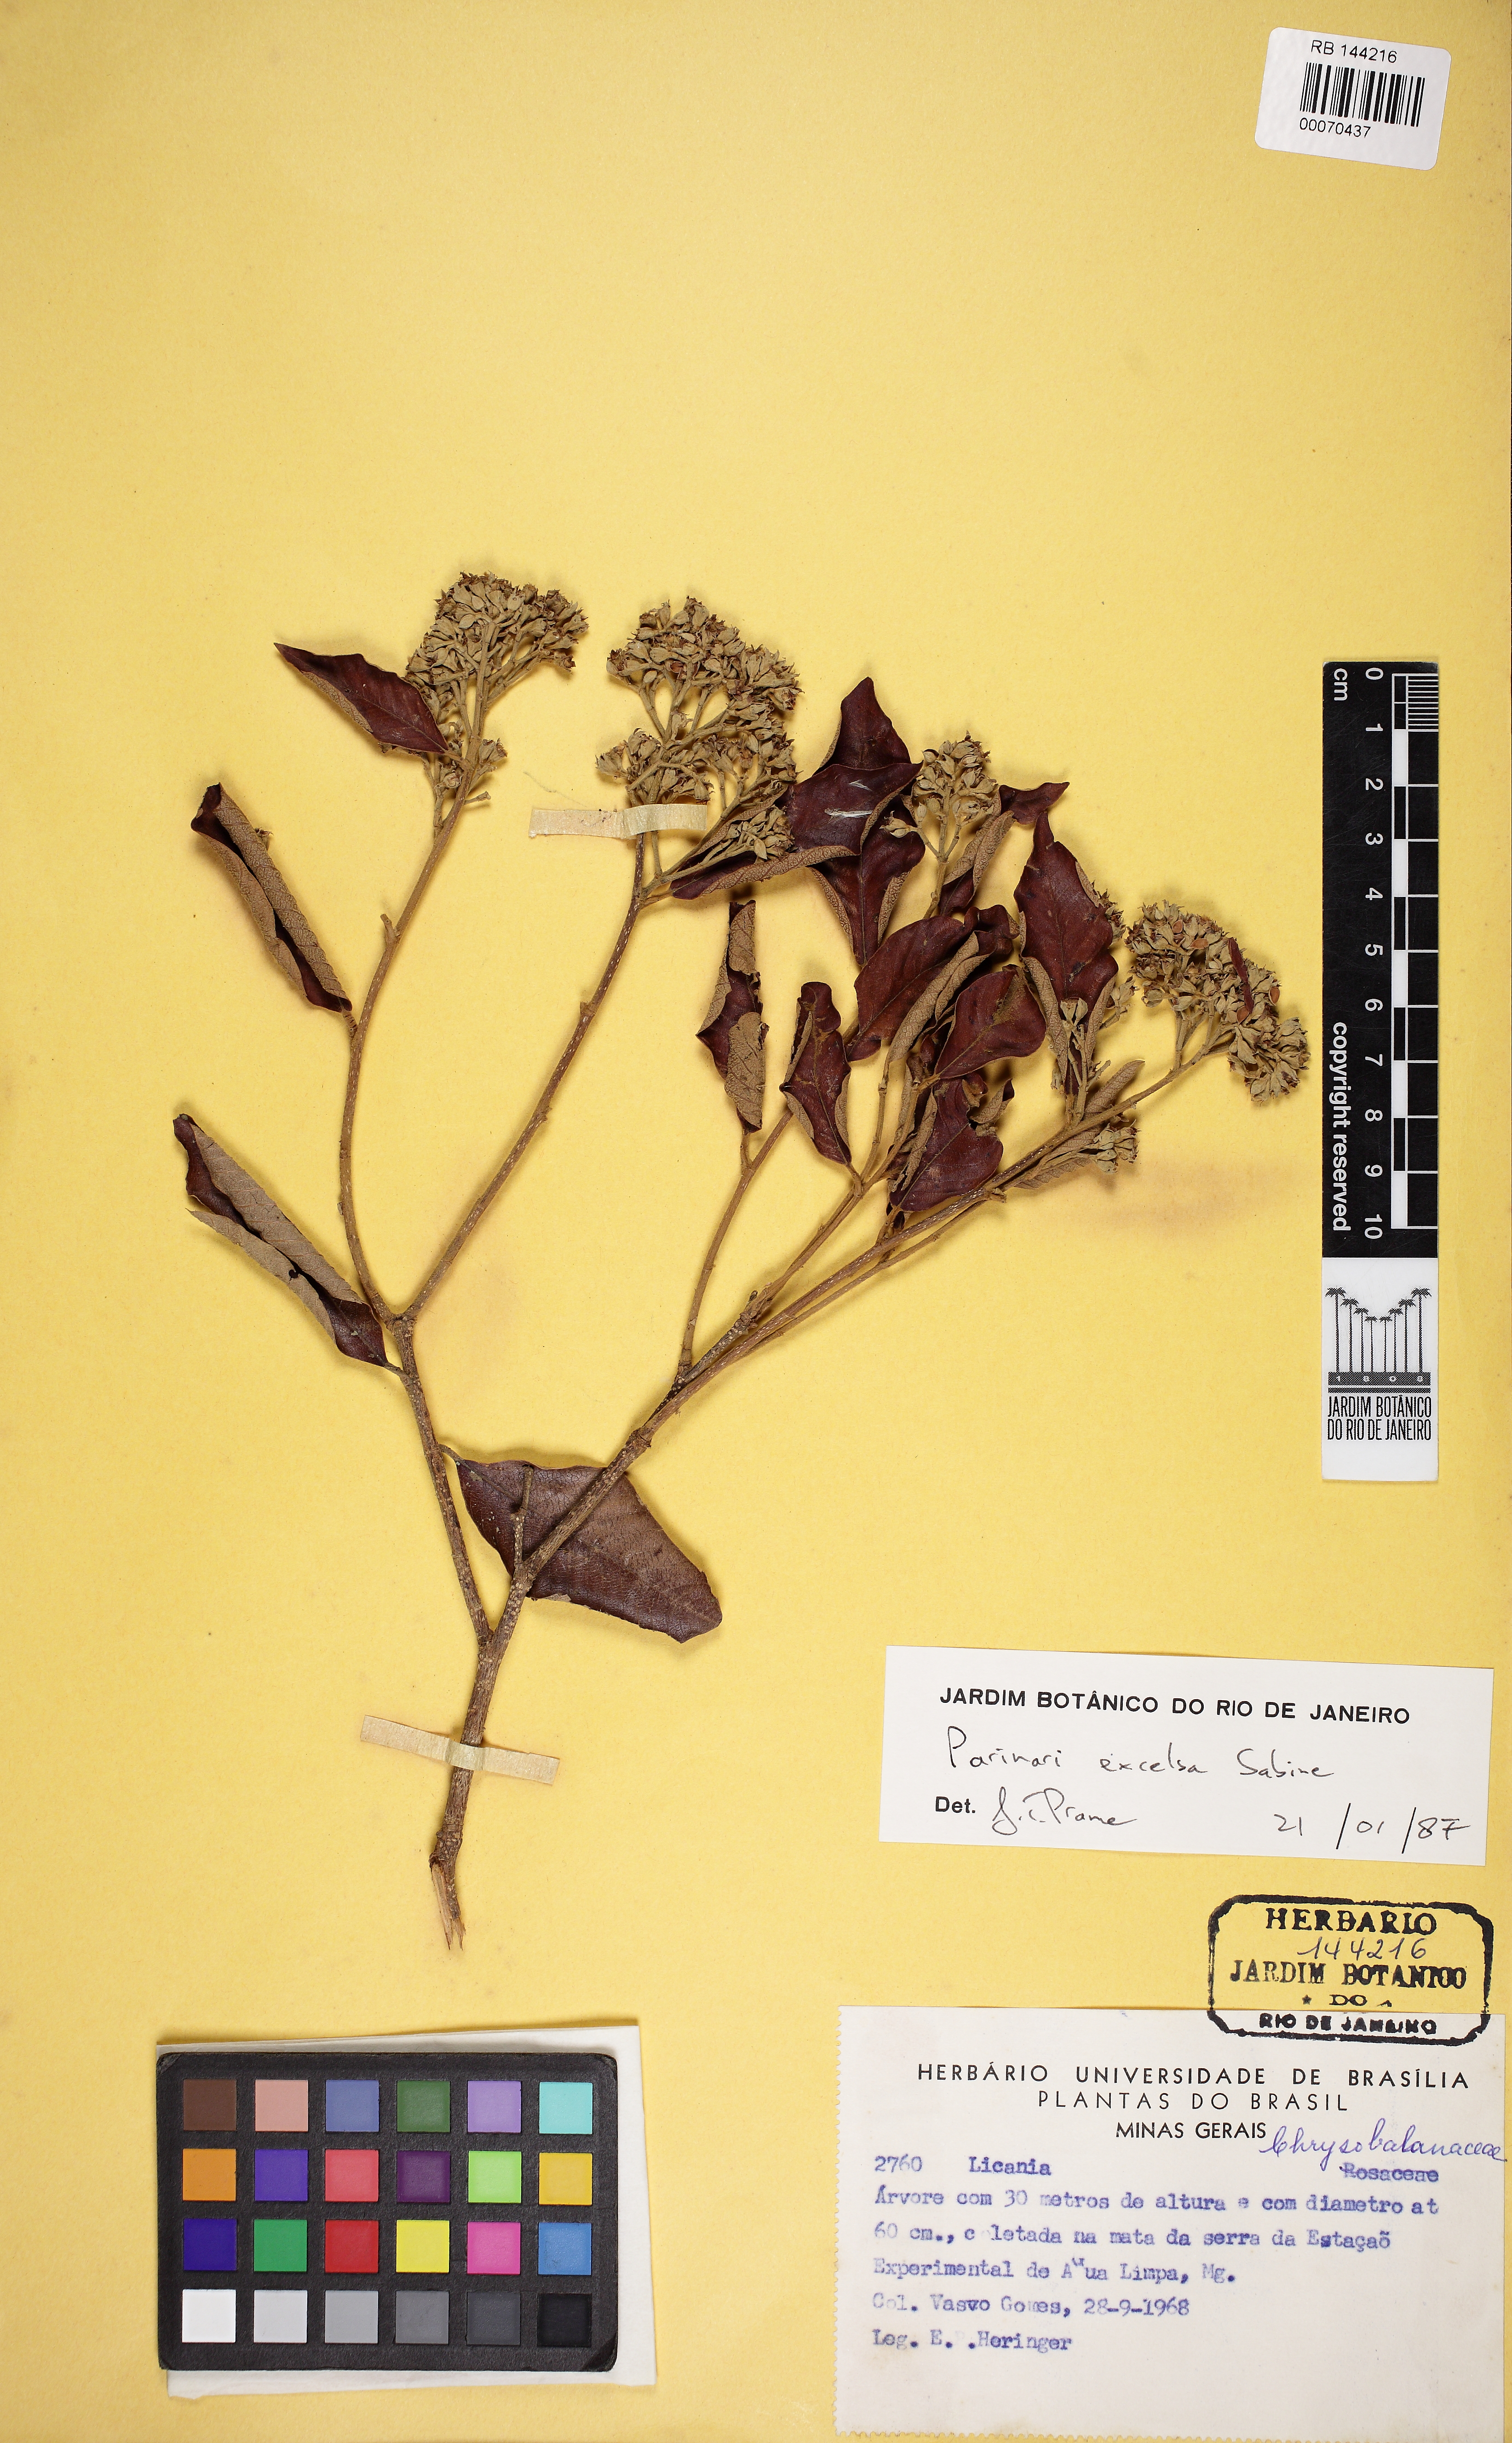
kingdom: Plantae
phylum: Tracheophyta
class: Magnoliopsida
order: Malpighiales
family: Chrysobalanaceae
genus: Parinari
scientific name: Parinari excelsa
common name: Guinea-plum
